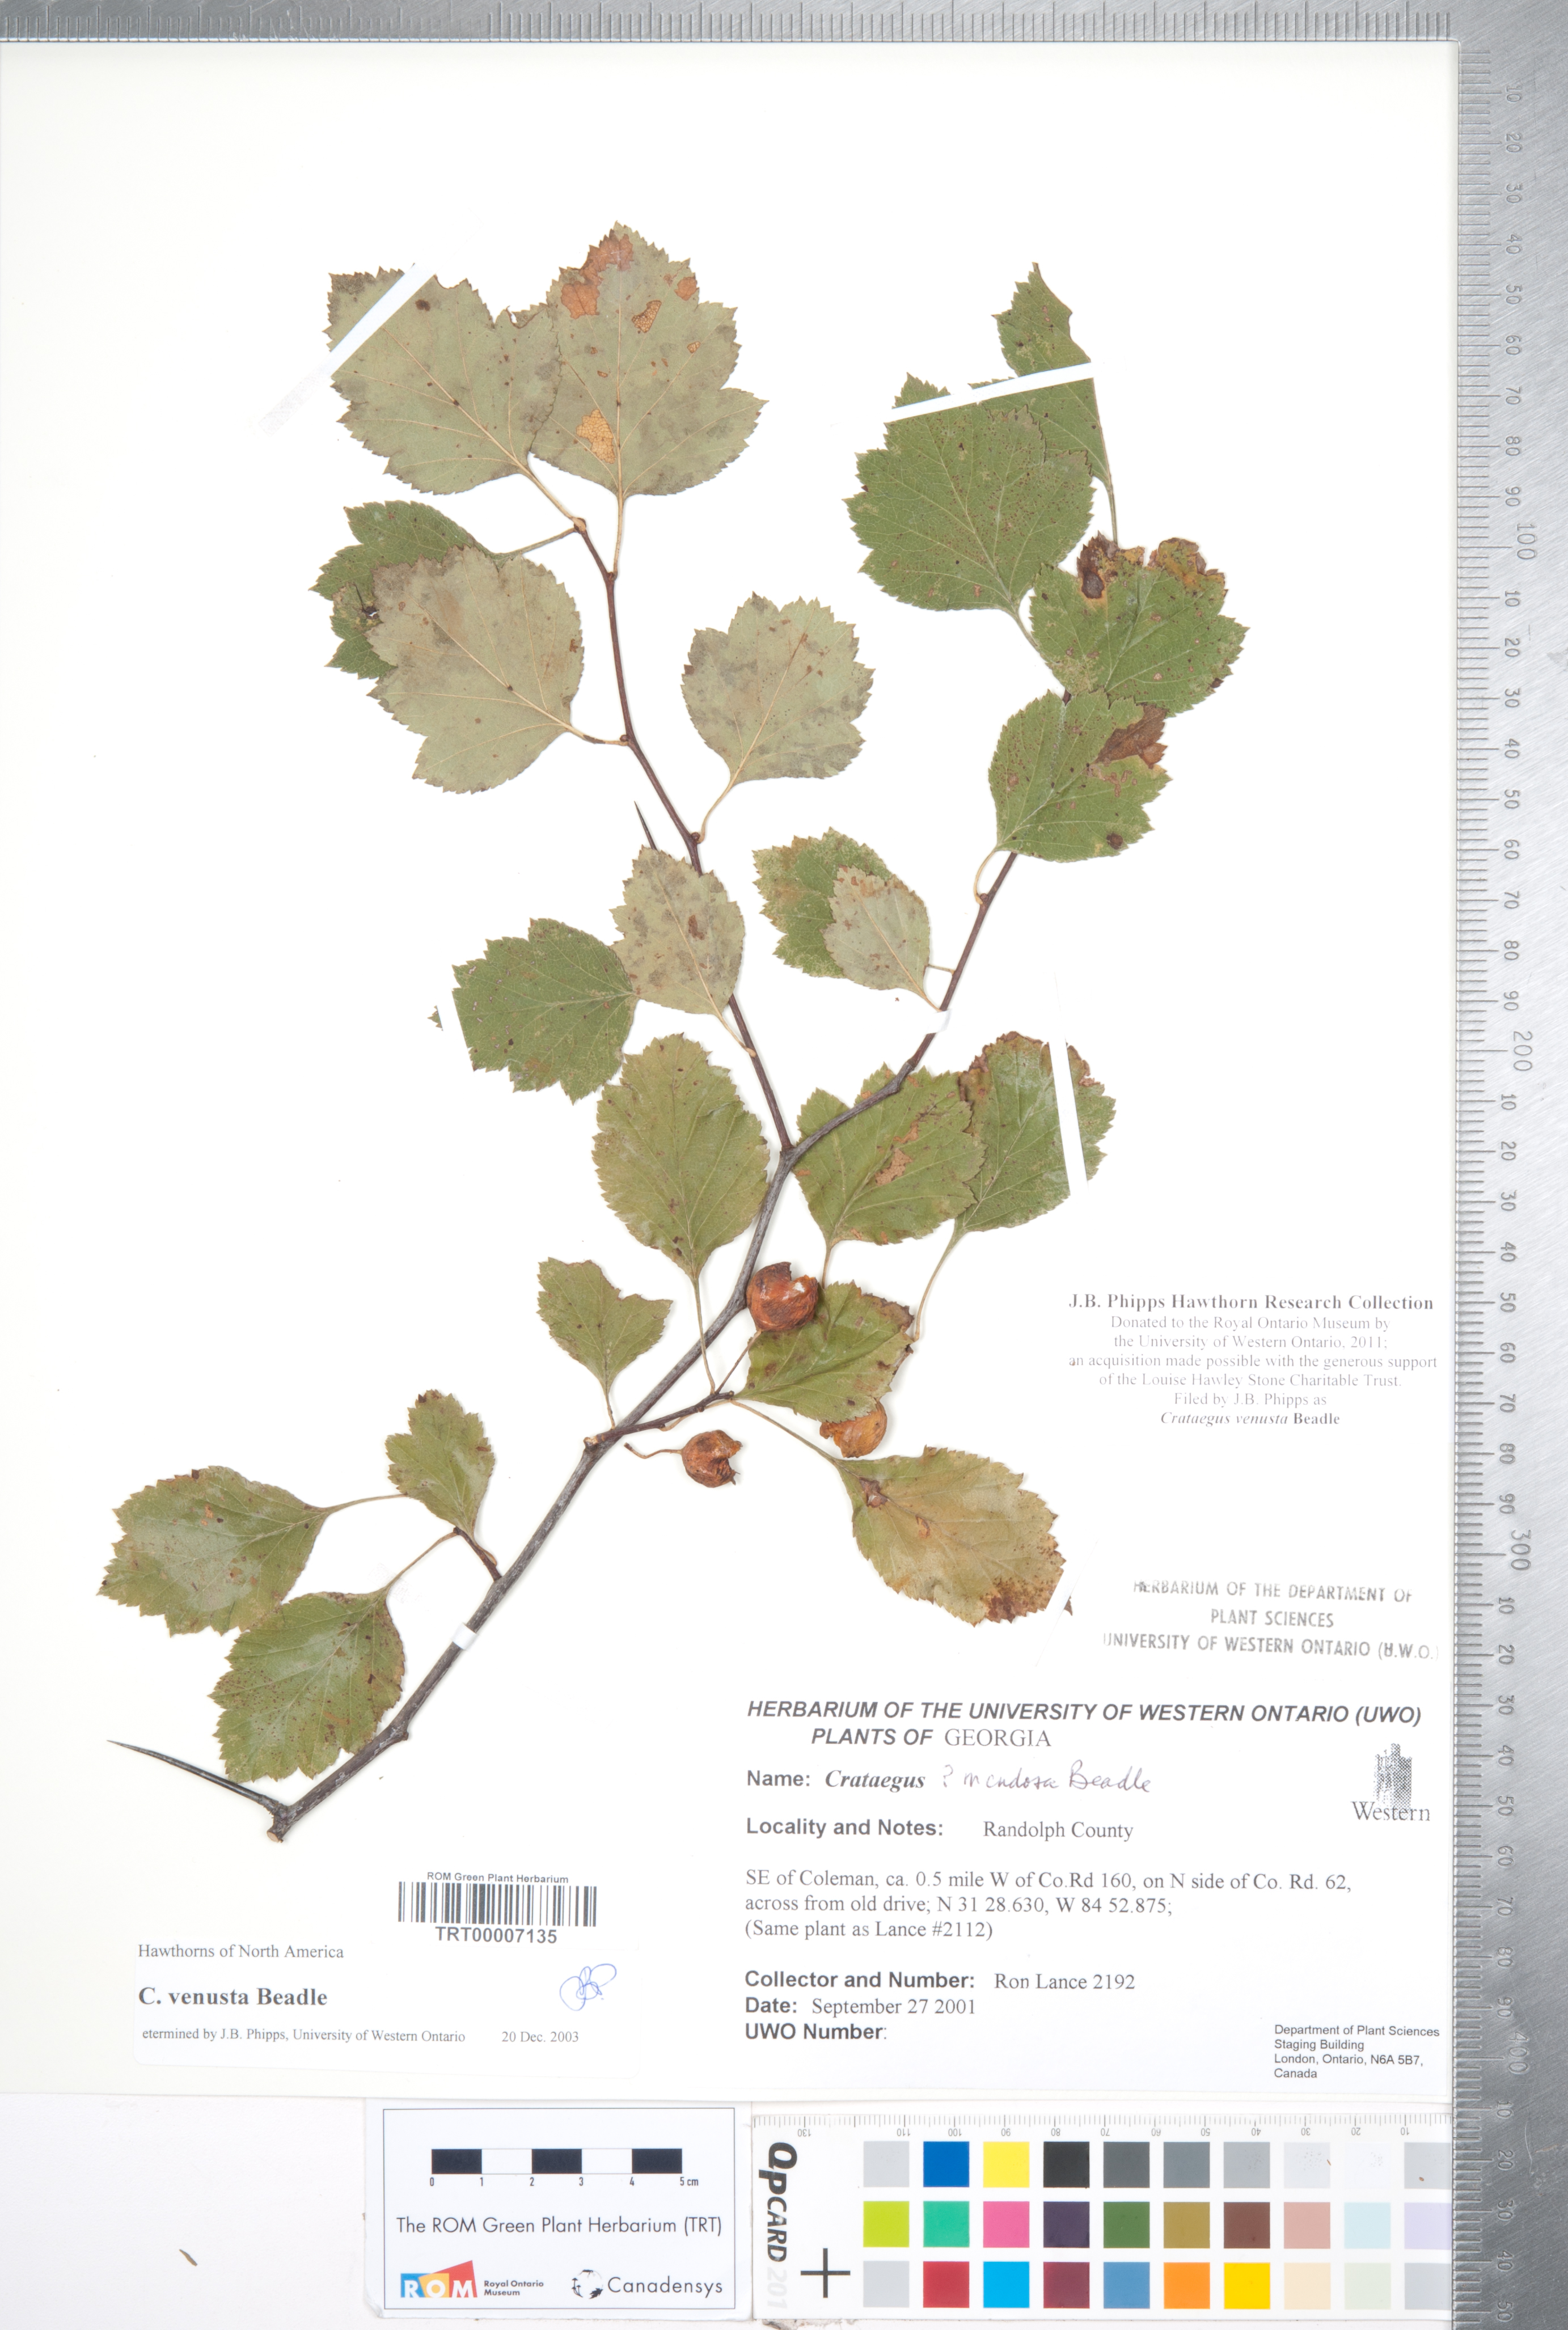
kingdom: Plantae
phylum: Tracheophyta
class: Magnoliopsida
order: Rosales
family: Rosaceae
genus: Crataegus
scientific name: Crataegus venusta
